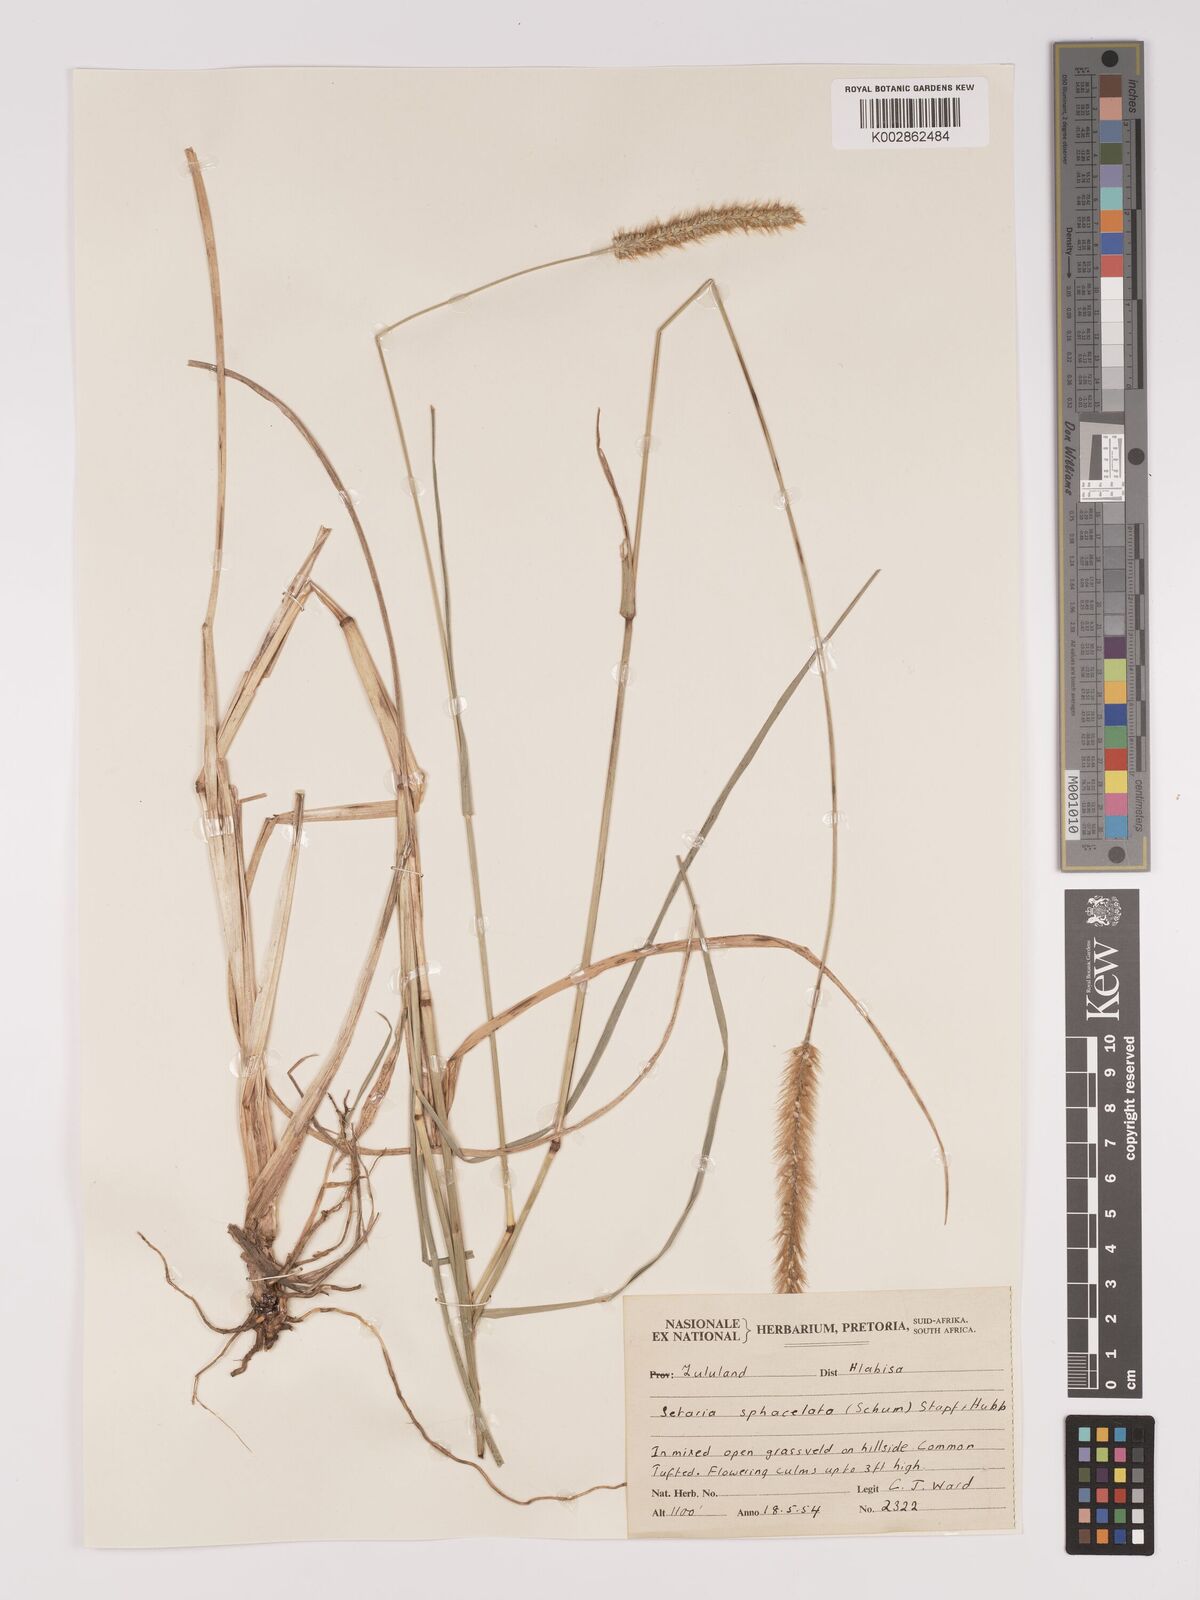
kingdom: Plantae
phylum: Tracheophyta
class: Liliopsida
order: Poales
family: Poaceae
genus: Setaria
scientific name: Setaria sphacelata
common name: African bristlegrass
